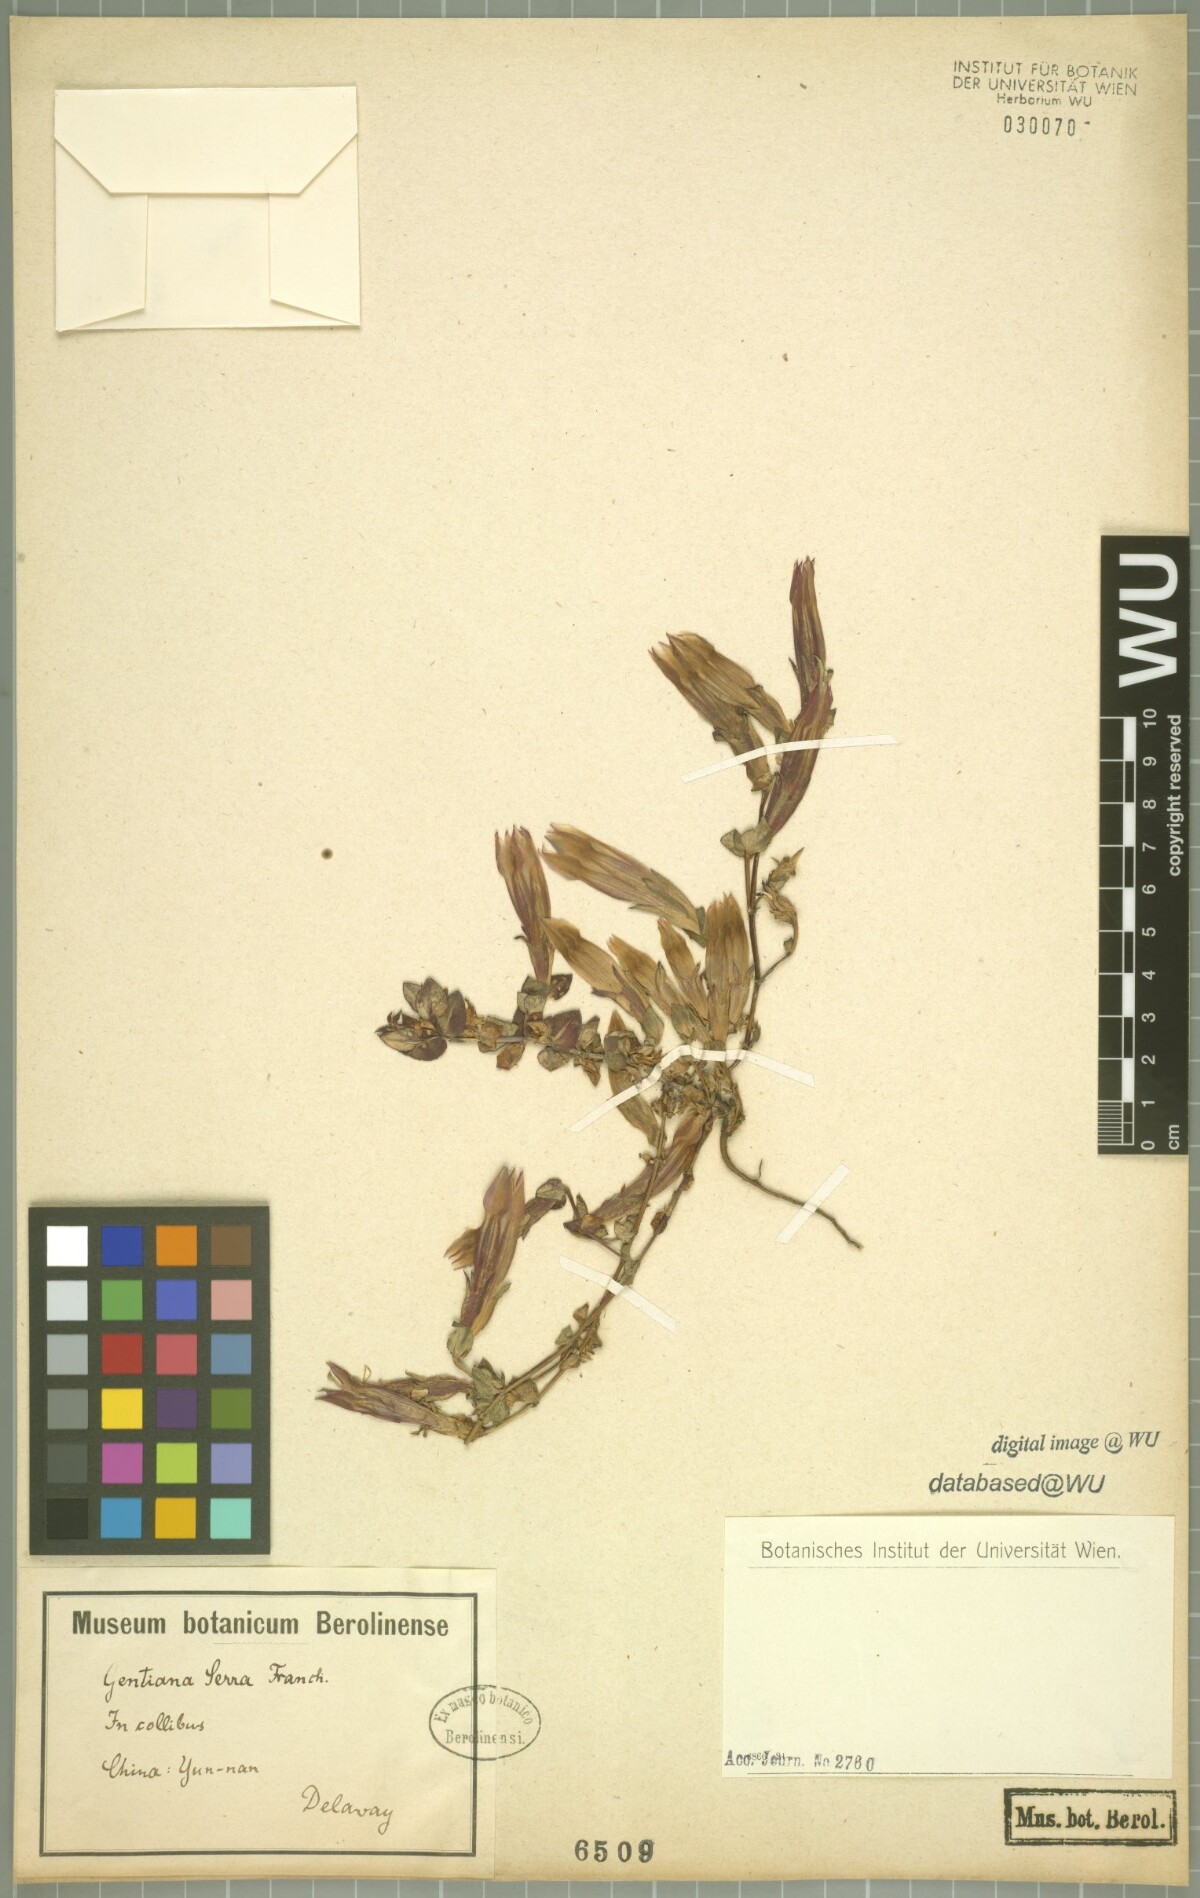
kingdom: Plantae
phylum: Tracheophyta
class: Magnoliopsida
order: Gentianales
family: Gentianaceae
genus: Metagentiana
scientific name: Metagentiana serra
